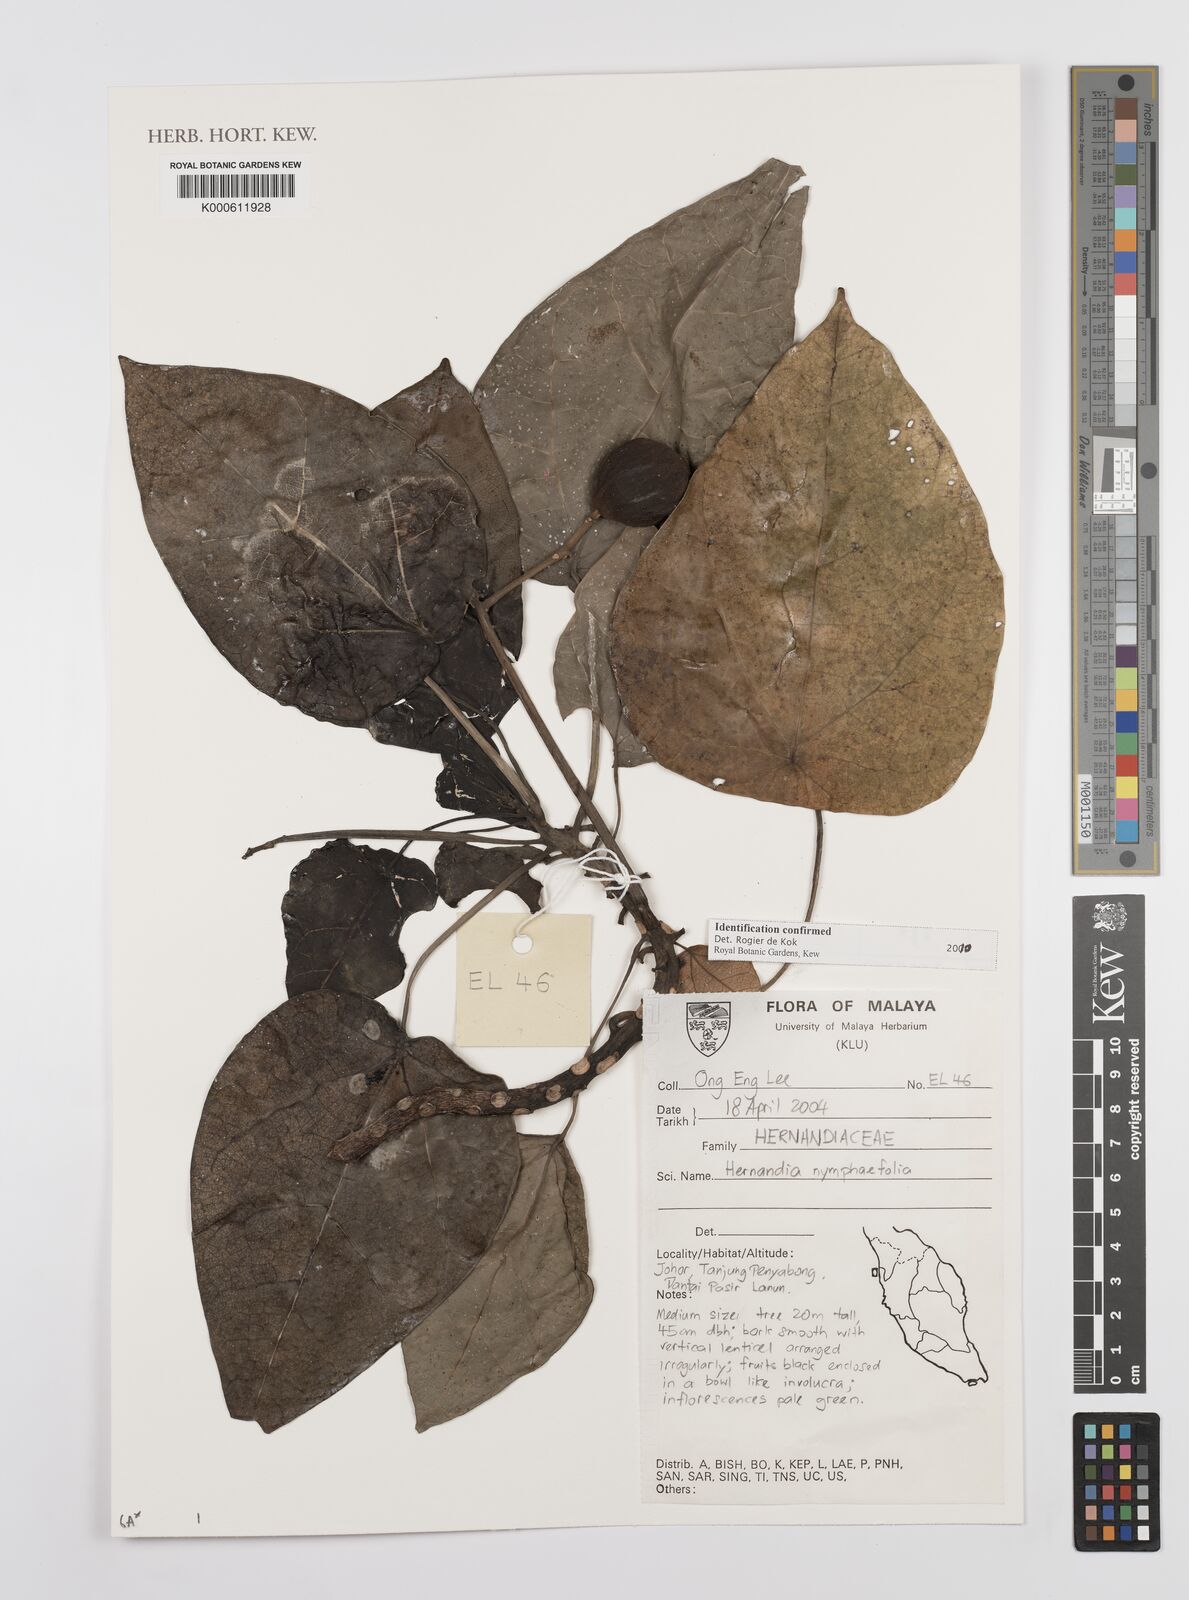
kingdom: Plantae
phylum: Tracheophyta
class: Magnoliopsida
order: Laurales
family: Hernandiaceae
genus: Hernandia
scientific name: Hernandia
